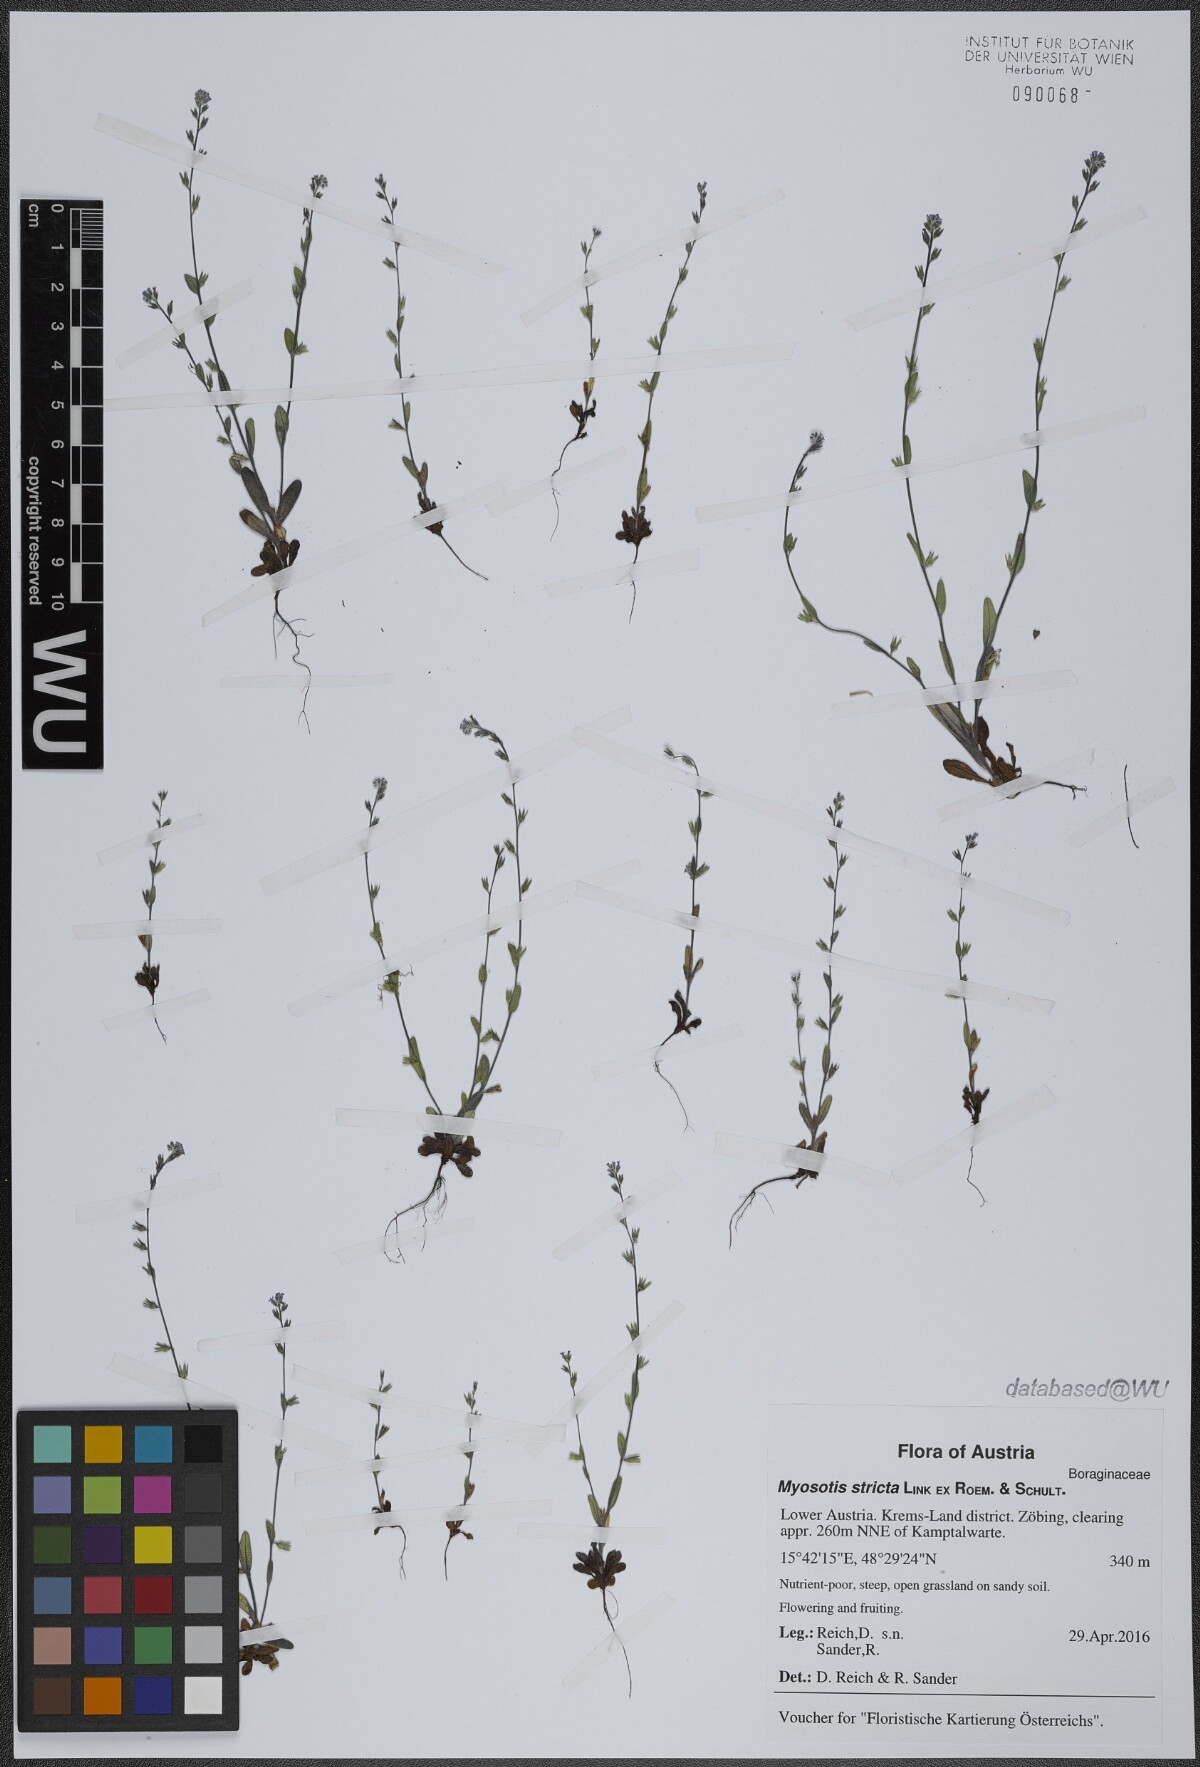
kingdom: Plantae
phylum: Tracheophyta
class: Magnoliopsida
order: Boraginales
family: Boraginaceae
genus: Myosotis
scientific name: Myosotis stricta
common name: Strict forget-me-not
